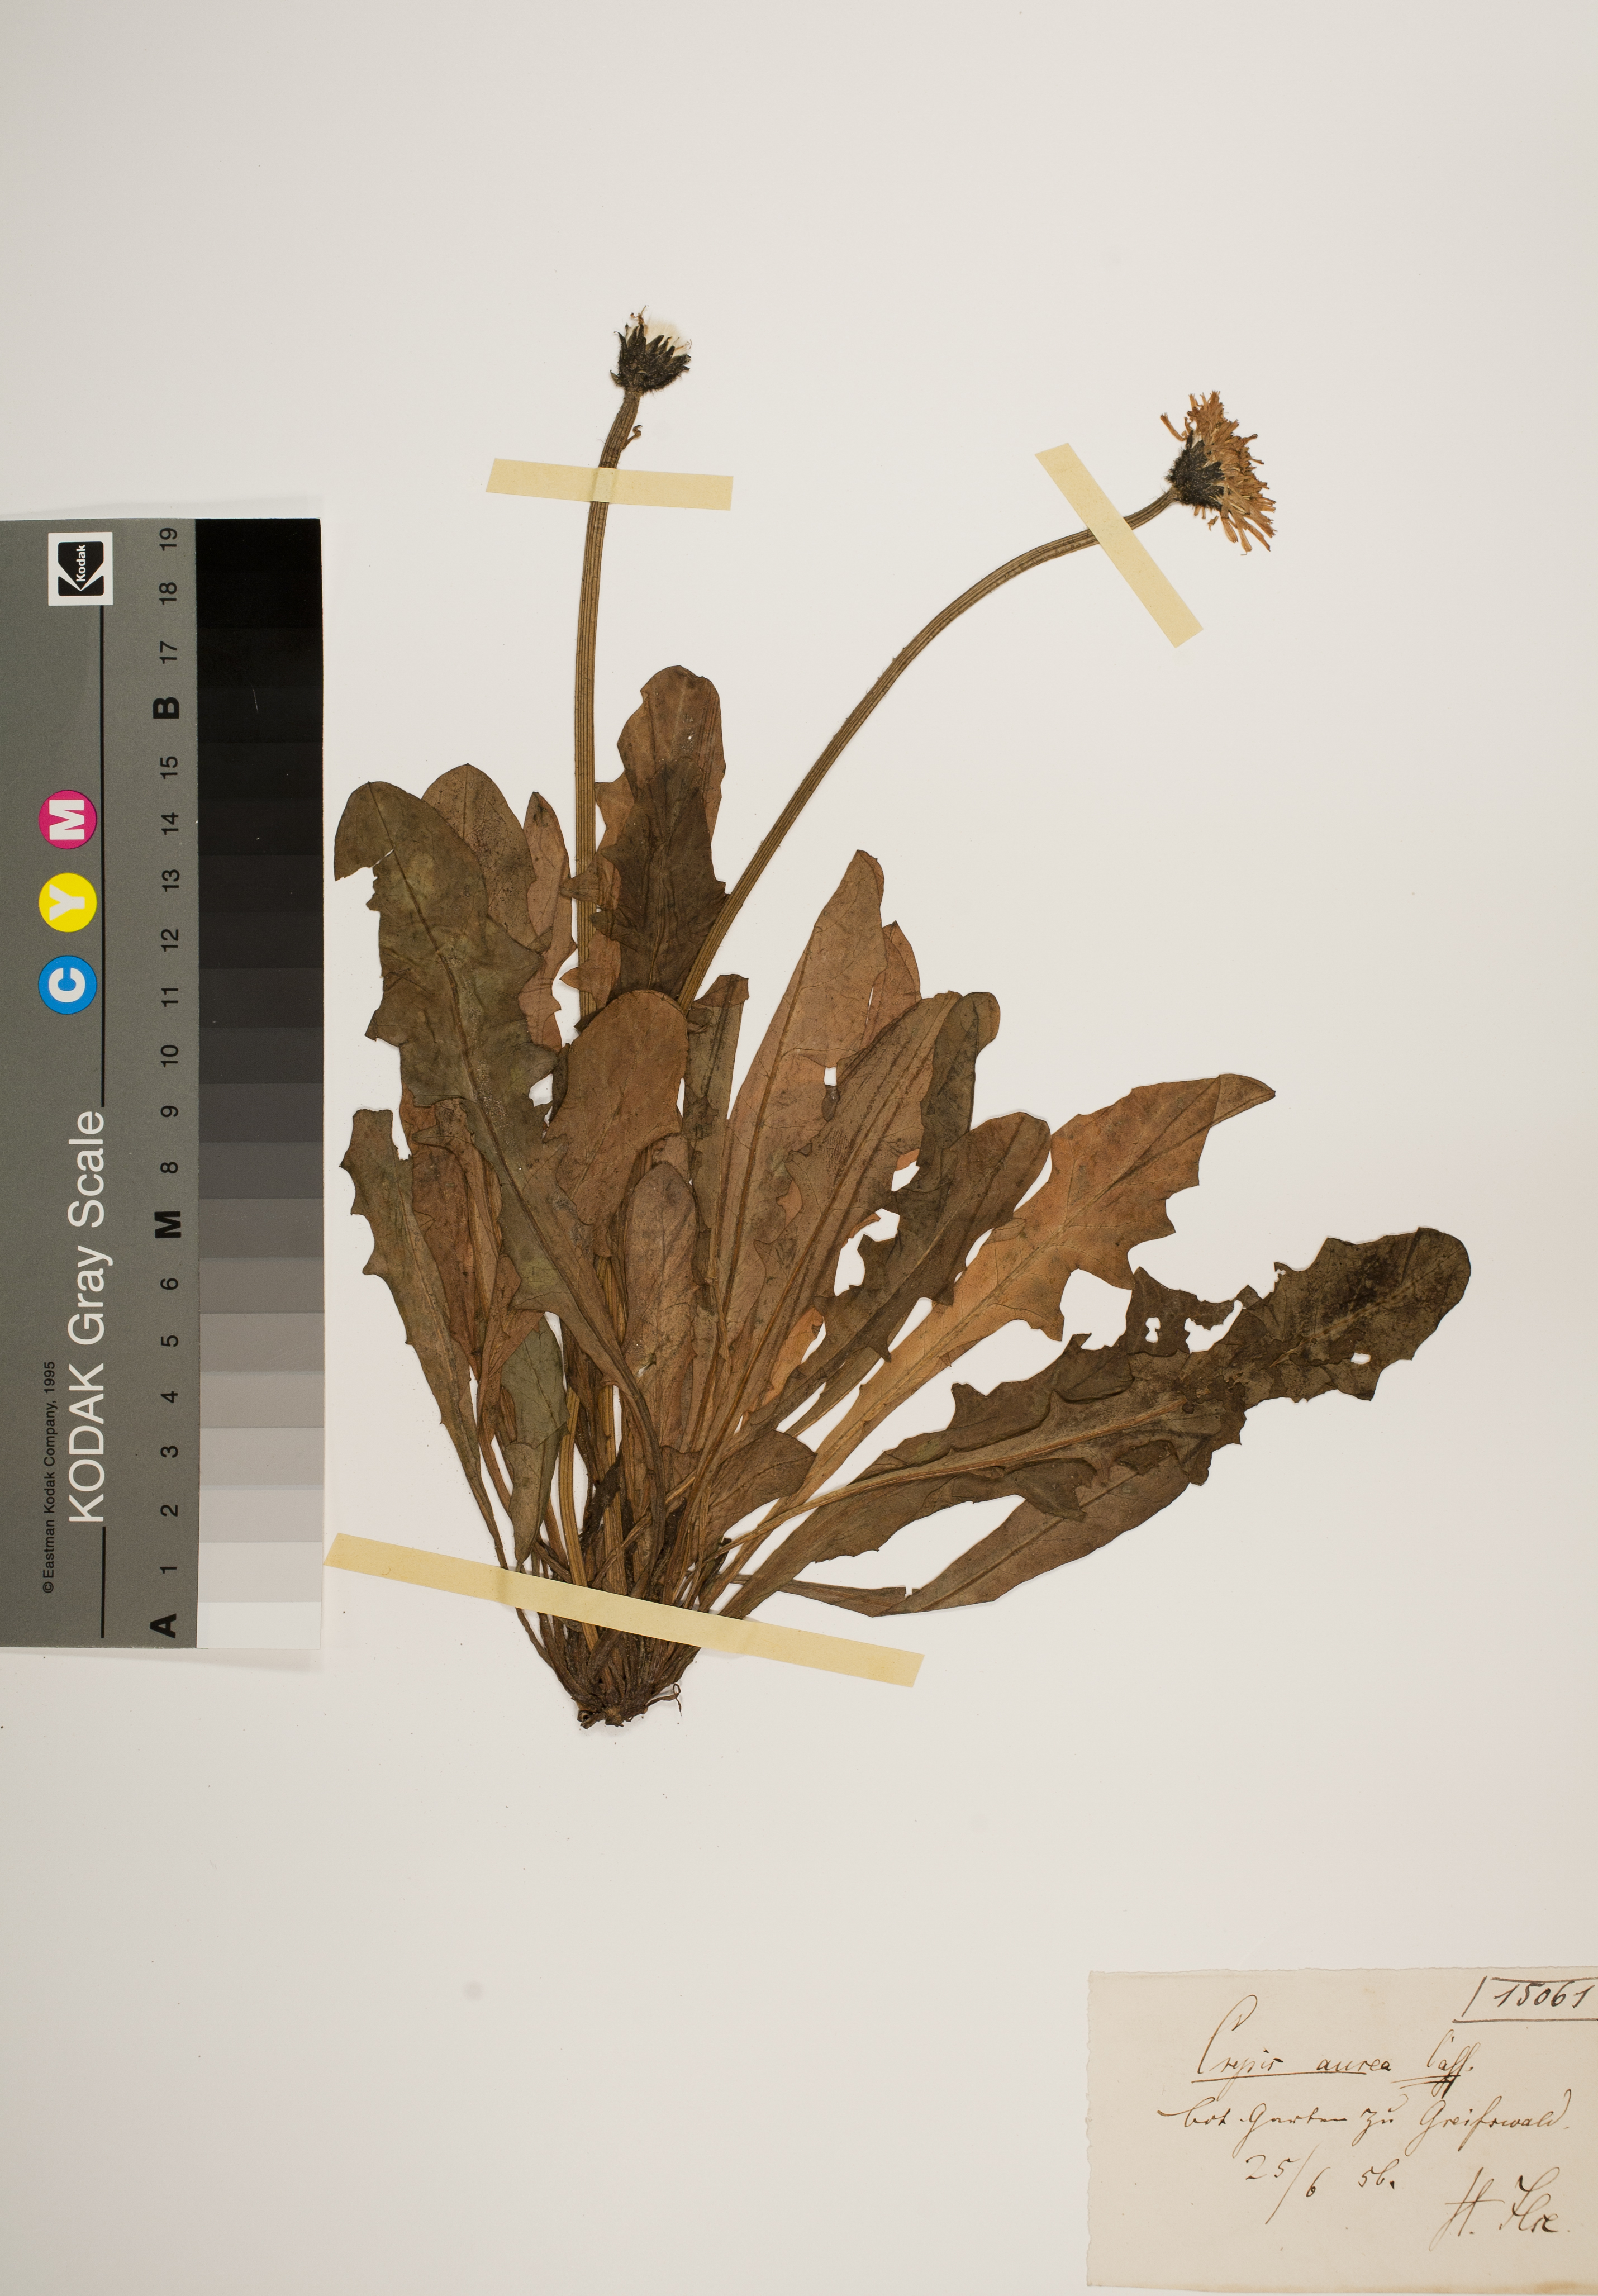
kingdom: Plantae
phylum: Tracheophyta
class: Magnoliopsida
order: Asterales
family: Asteraceae
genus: Crepis
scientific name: Crepis aurea
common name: Golden hawk's-beard
